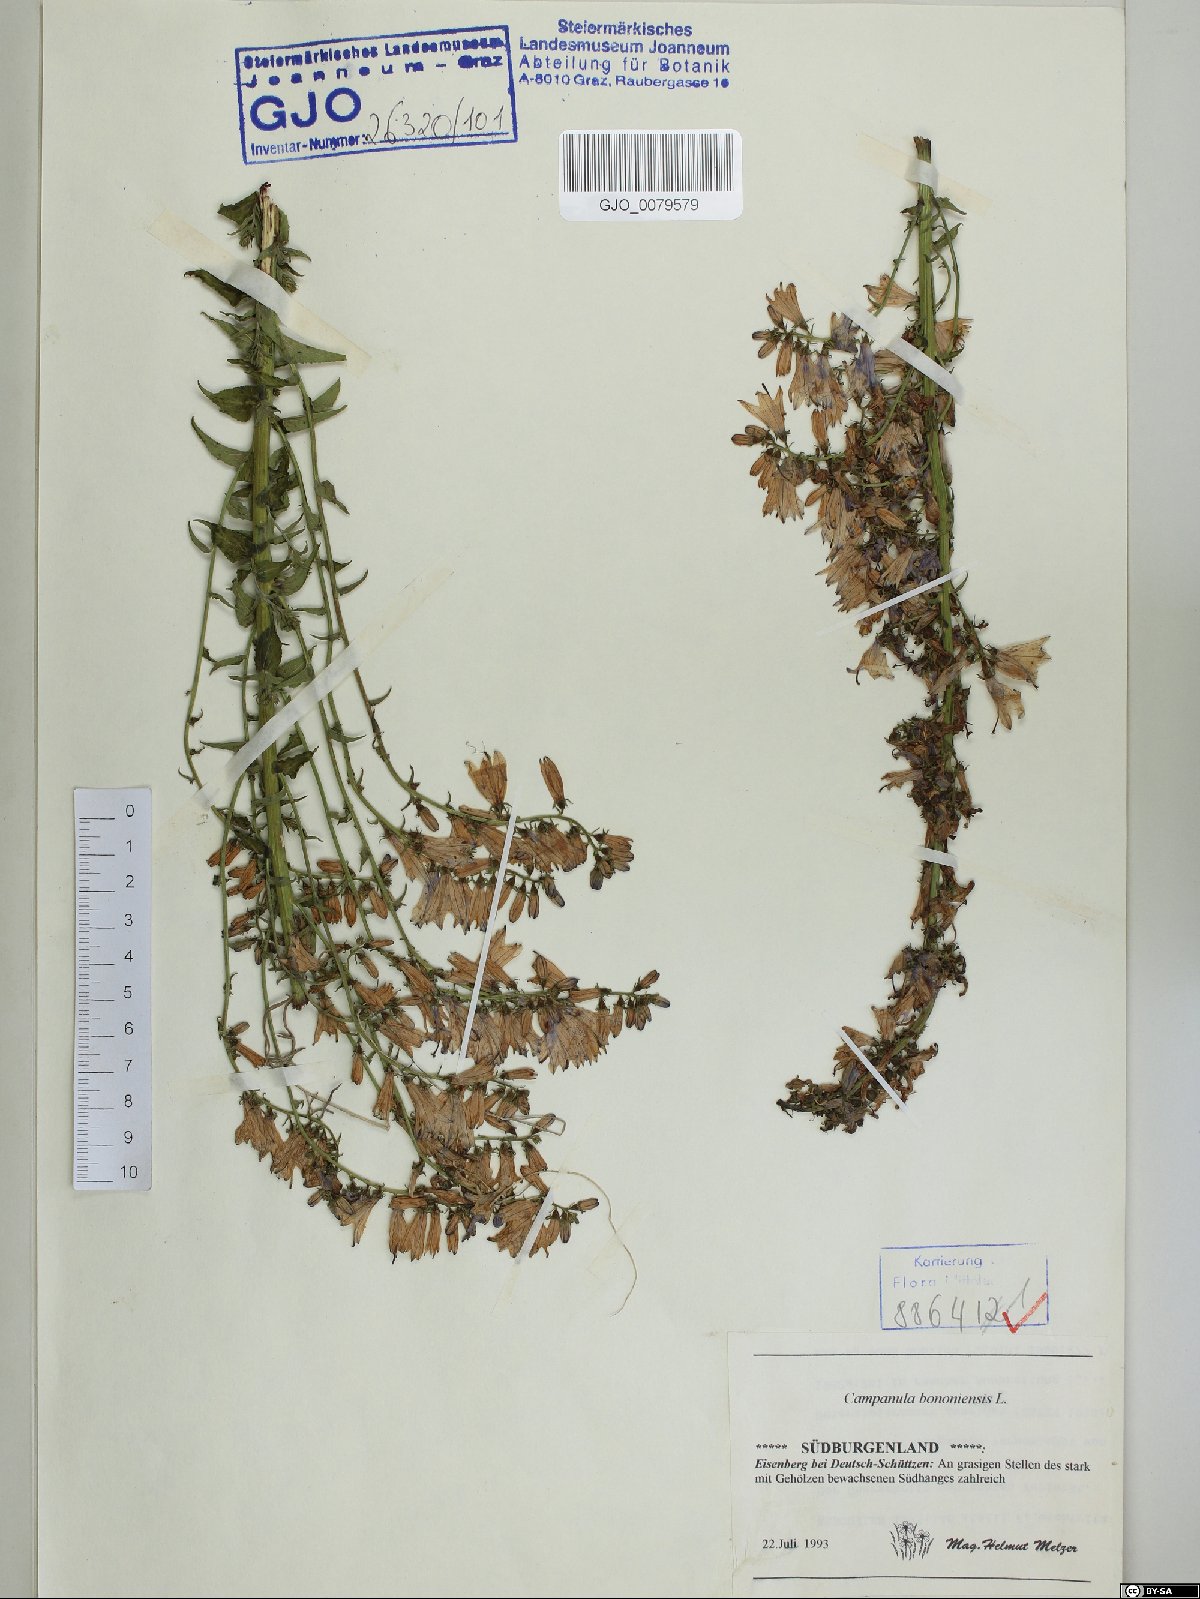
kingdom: Plantae
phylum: Tracheophyta
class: Magnoliopsida
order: Asterales
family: Campanulaceae
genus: Campanula
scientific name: Campanula bononiensis
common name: Pale bellflower
